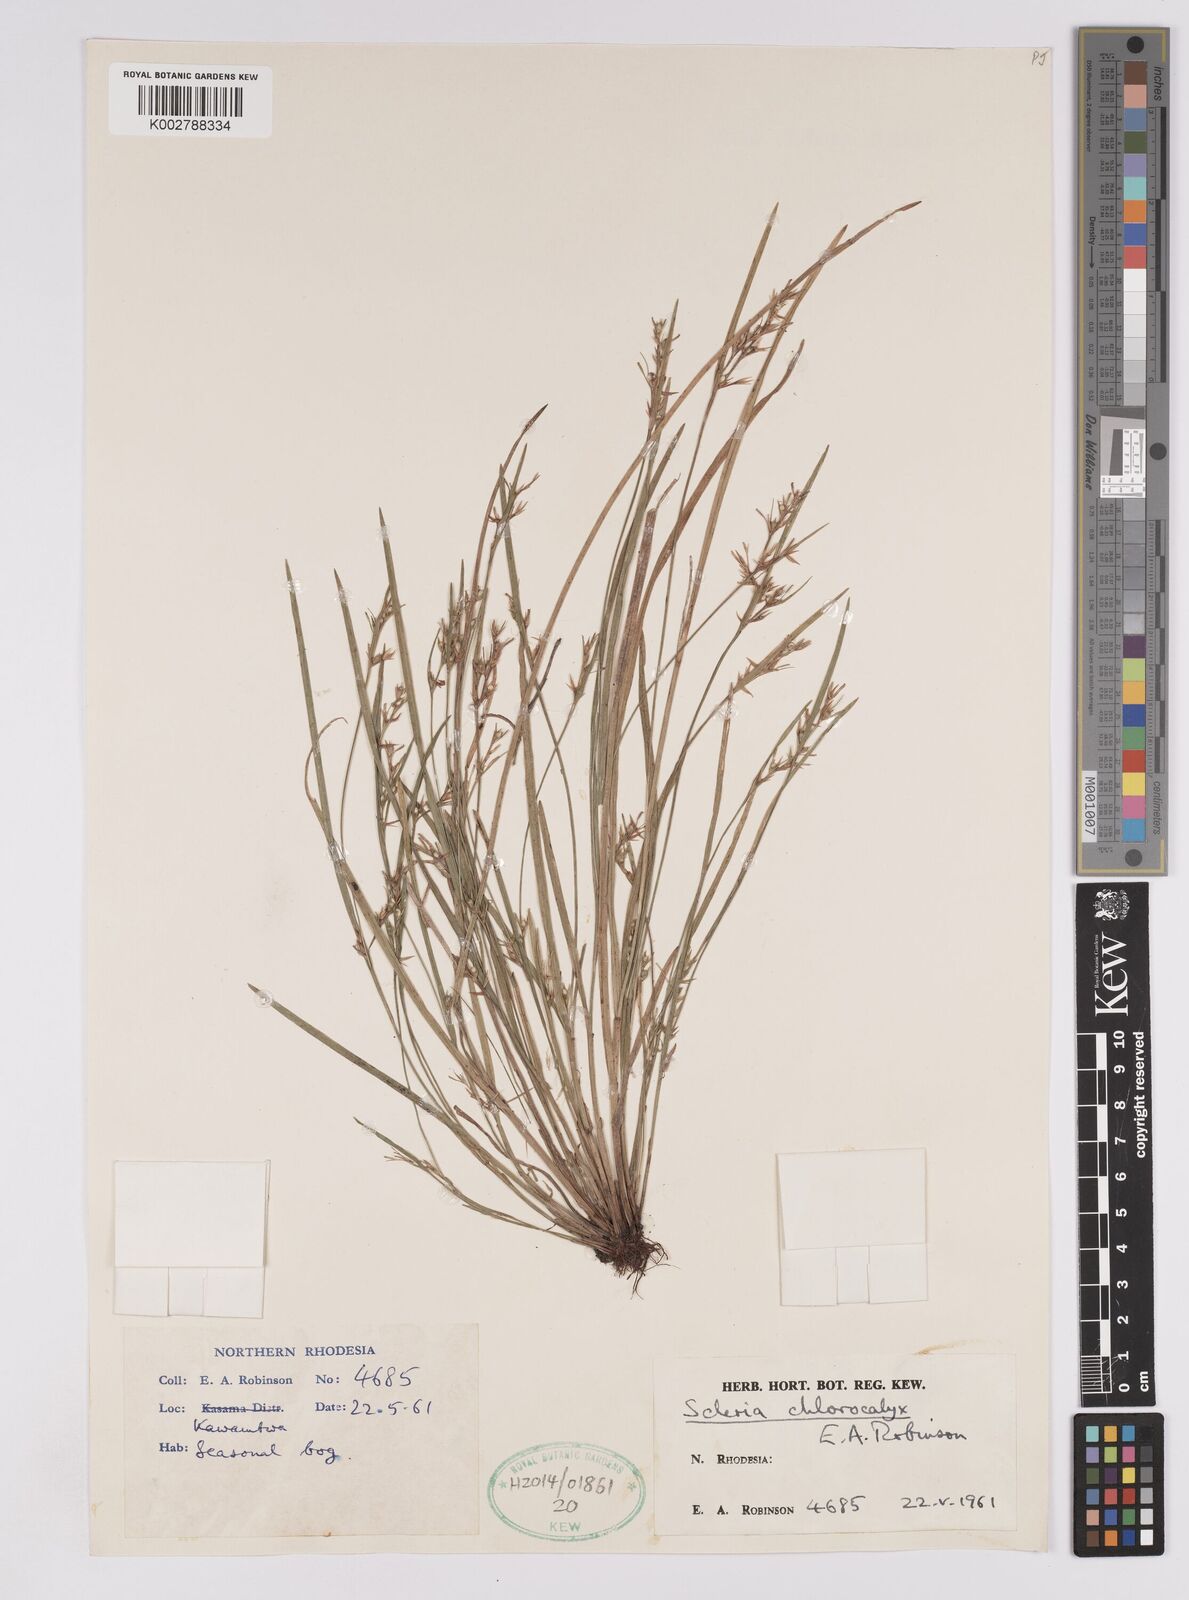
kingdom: Plantae
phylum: Tracheophyta
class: Liliopsida
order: Poales
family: Cyperaceae
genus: Scleria
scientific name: Scleria chlorocalyx
